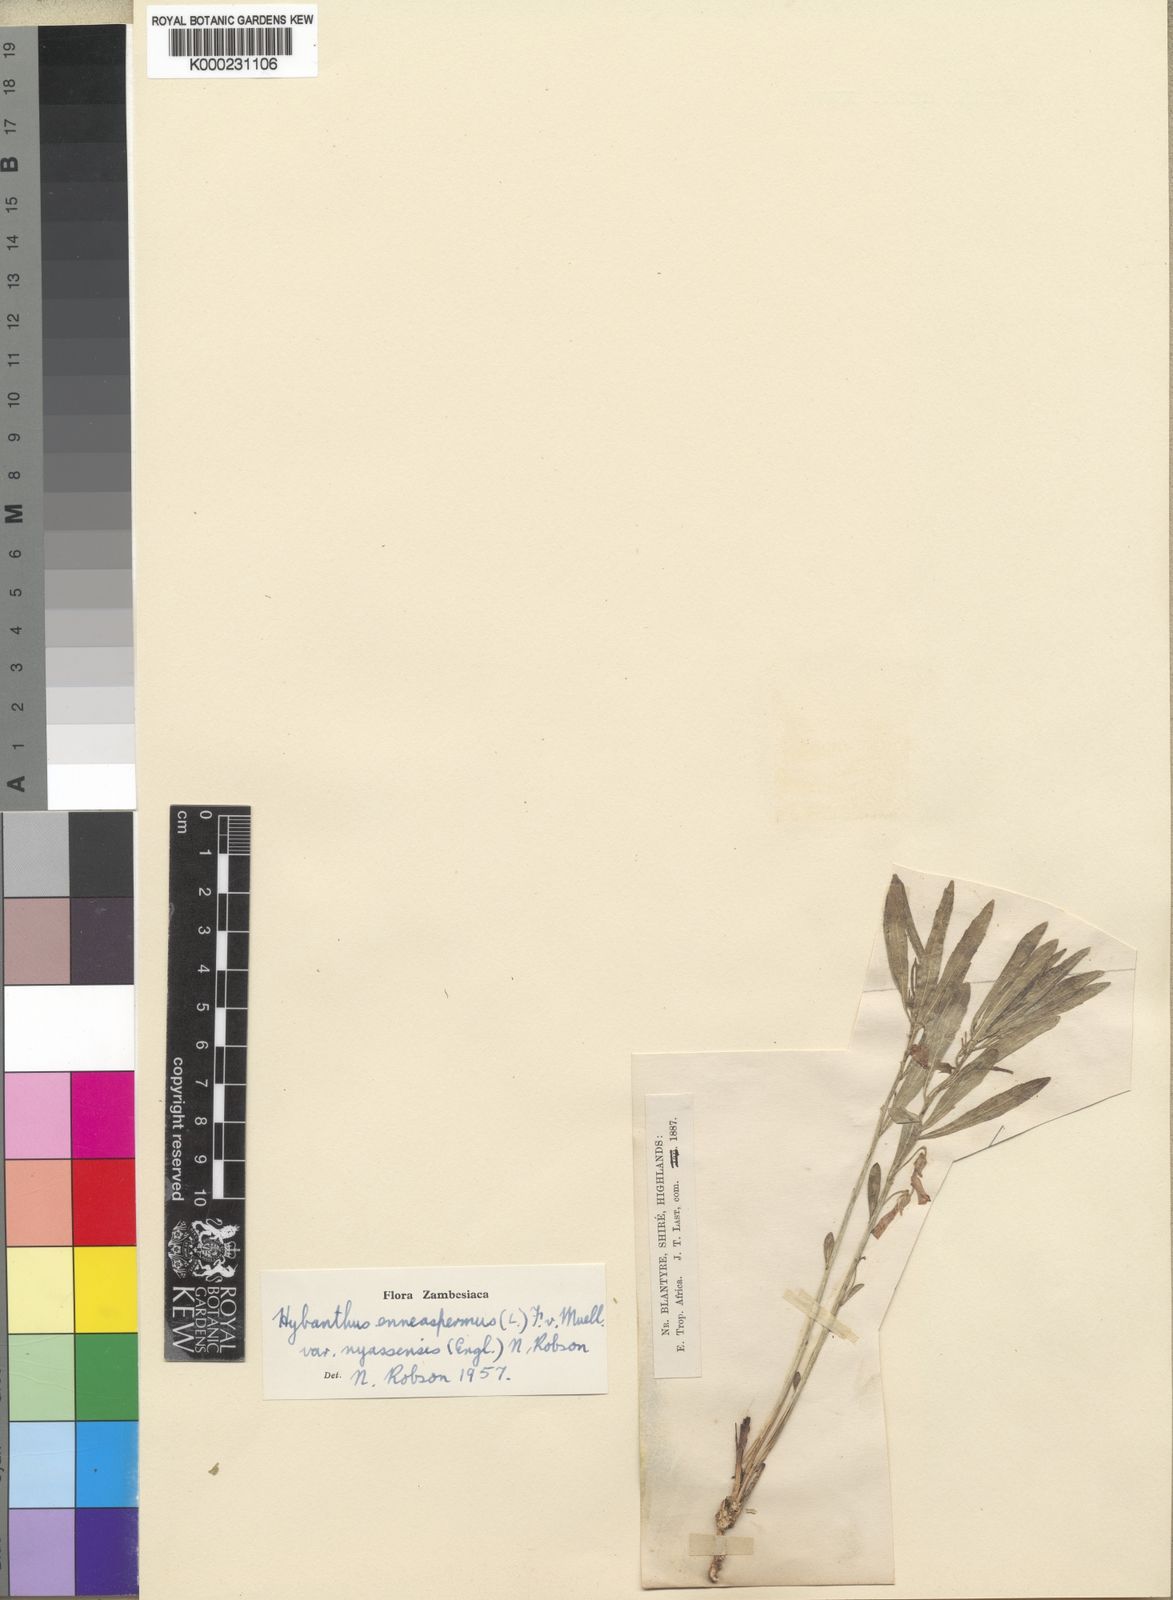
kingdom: Plantae
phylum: Tracheophyta
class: Magnoliopsida
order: Malpighiales
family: Violaceae
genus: Pigea
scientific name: Pigea enneasperma
